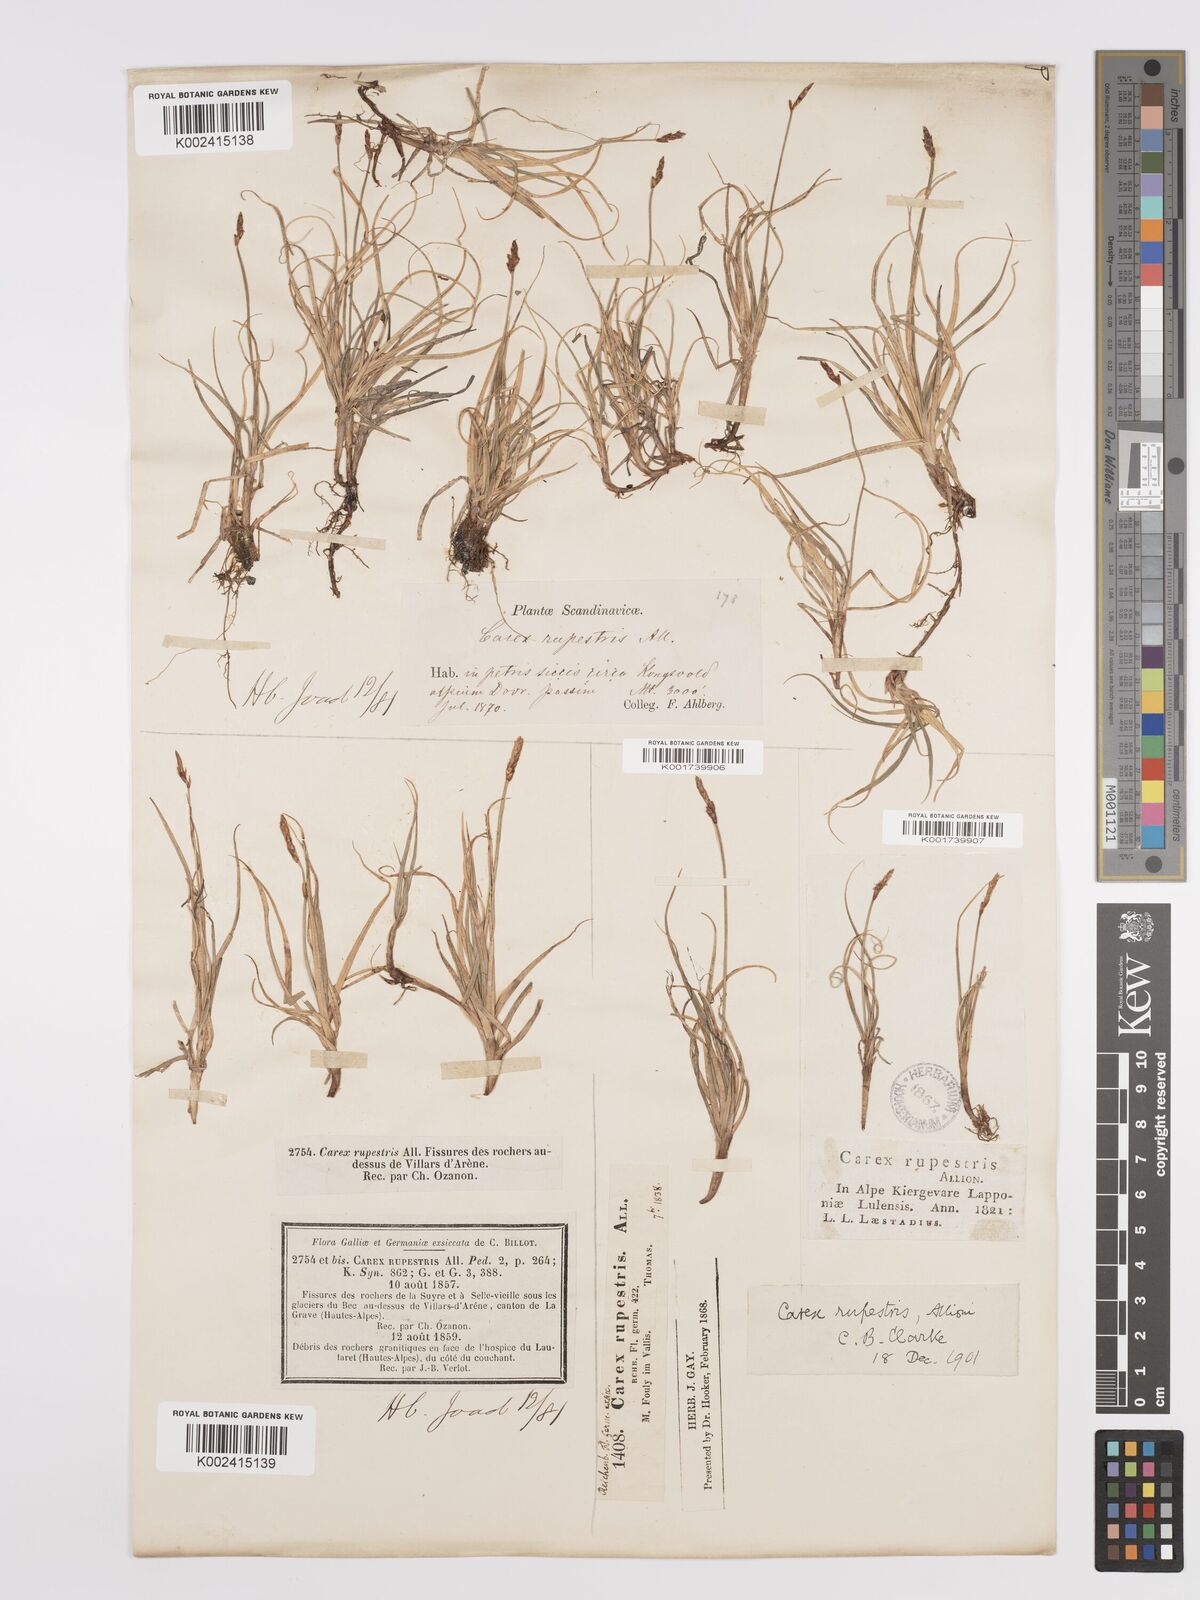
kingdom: Plantae
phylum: Tracheophyta
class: Liliopsida
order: Poales
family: Cyperaceae
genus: Carex
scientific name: Carex rupestris
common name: Rock sedge
